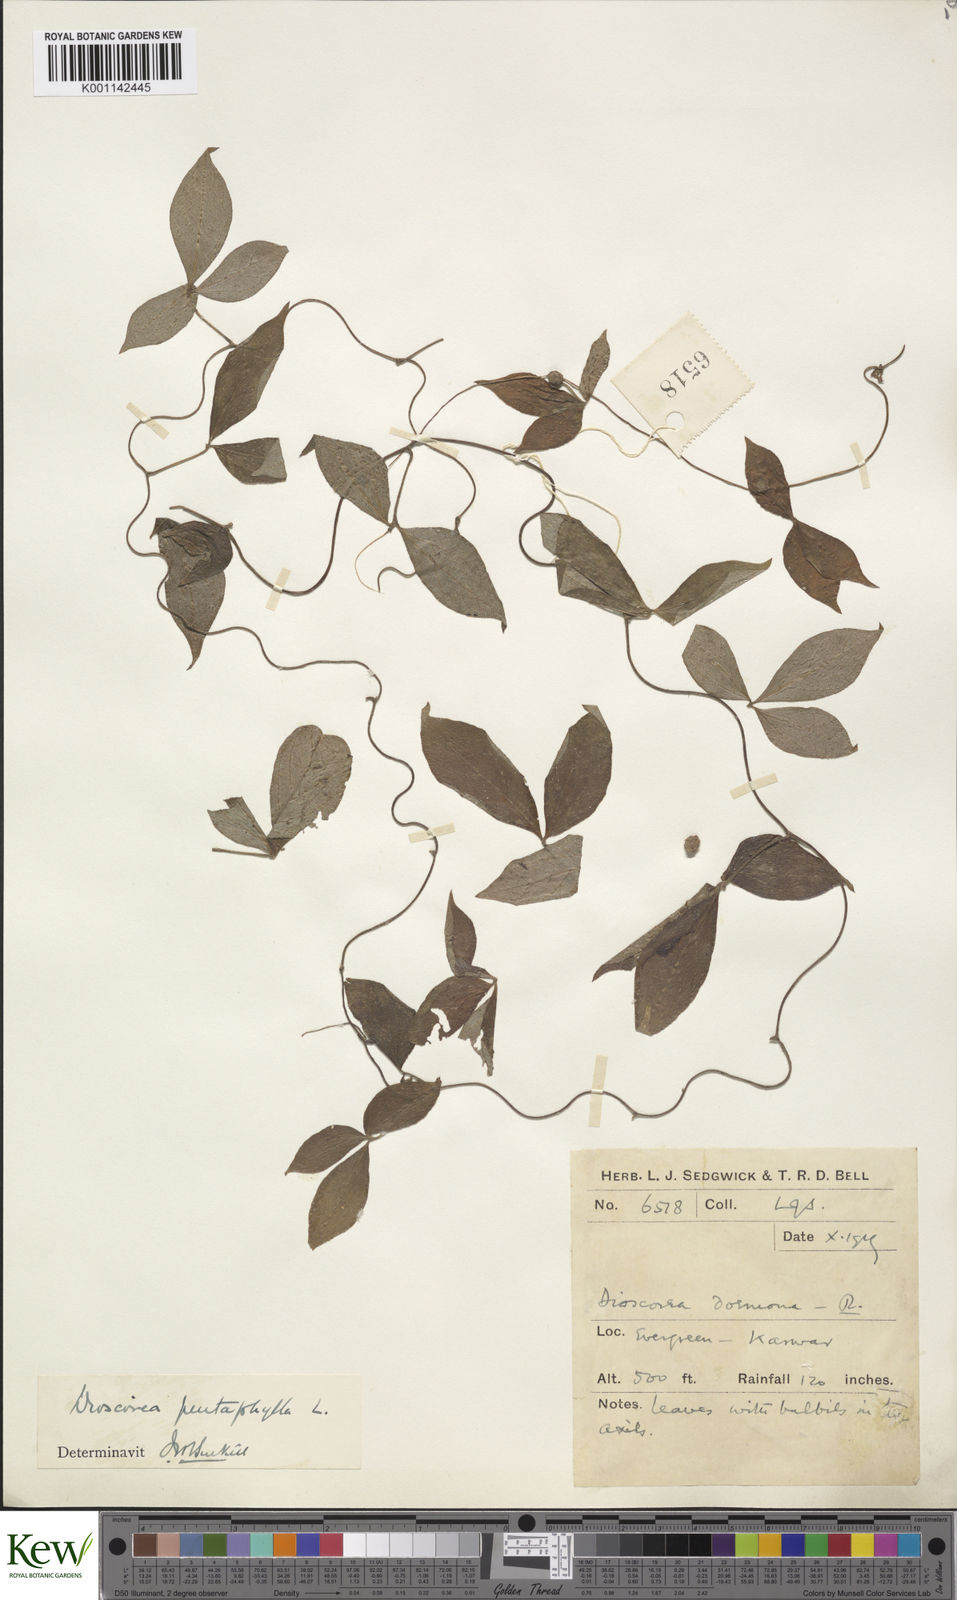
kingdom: Plantae
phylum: Tracheophyta
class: Liliopsida
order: Dioscoreales
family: Dioscoreaceae
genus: Dioscorea
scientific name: Dioscorea pentaphylla
